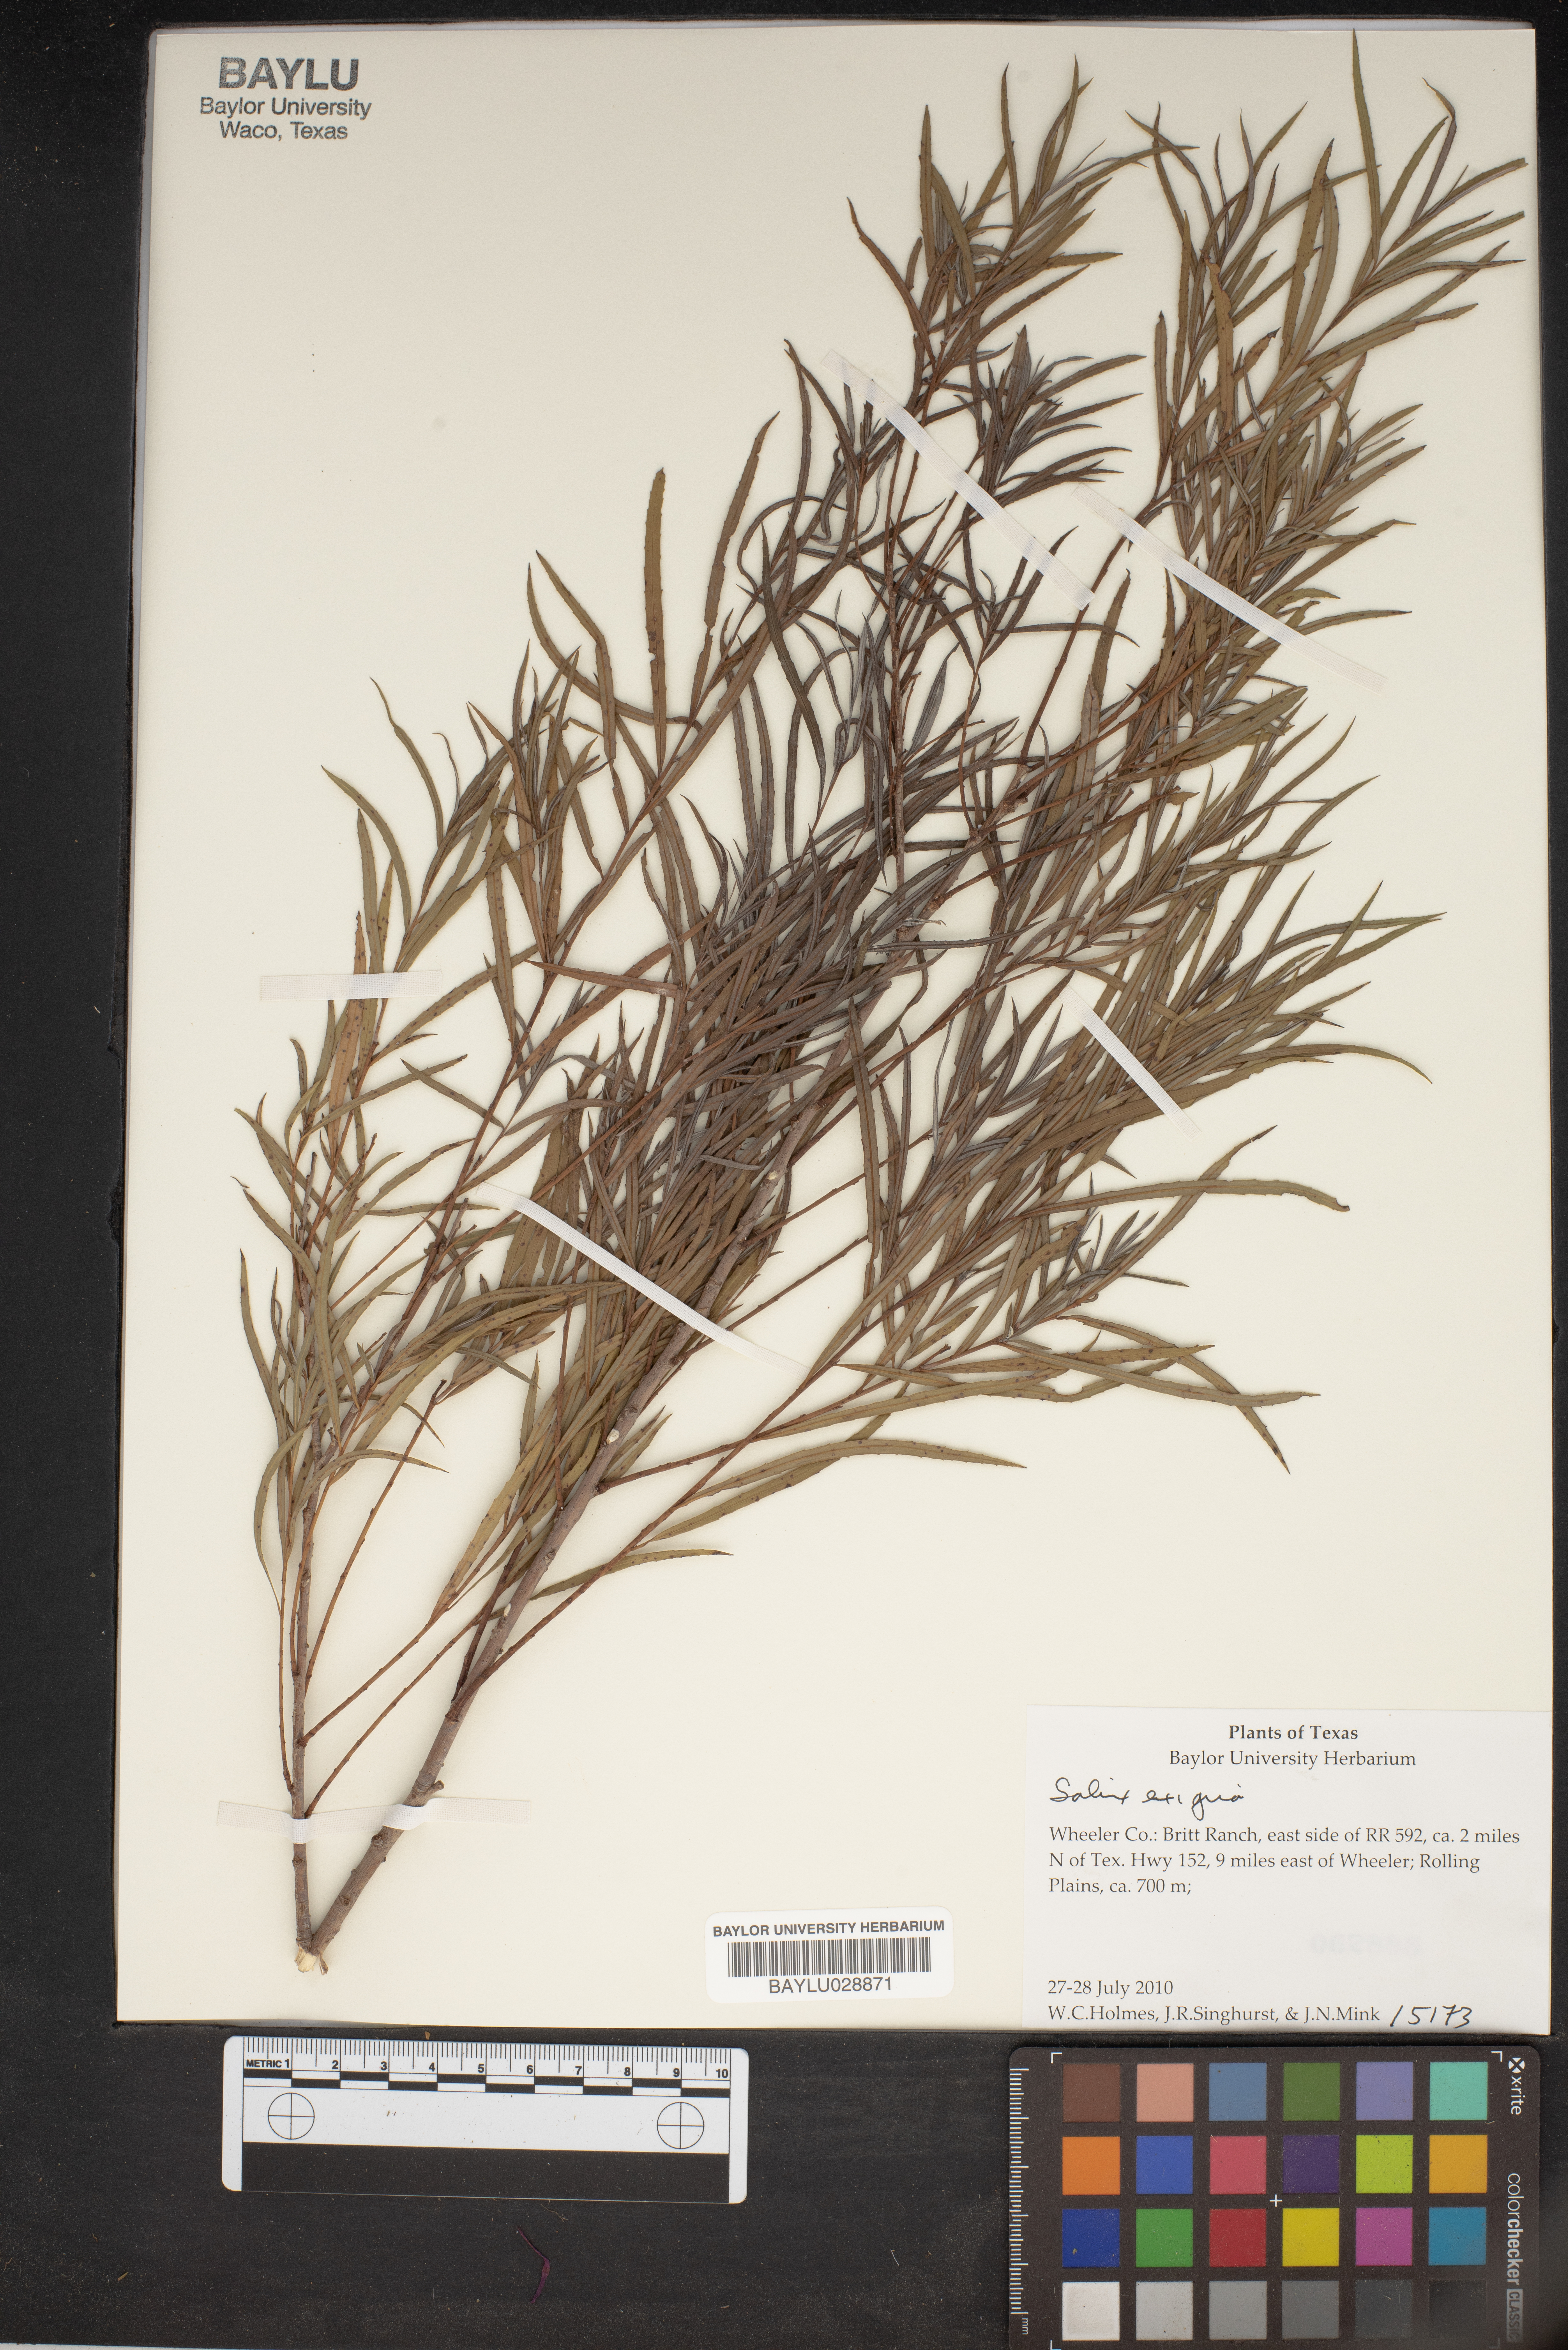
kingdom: Plantae
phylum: Tracheophyta
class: Magnoliopsida
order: Malpighiales
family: Salicaceae
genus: Salix
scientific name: Salix exigua
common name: Coyote willow
